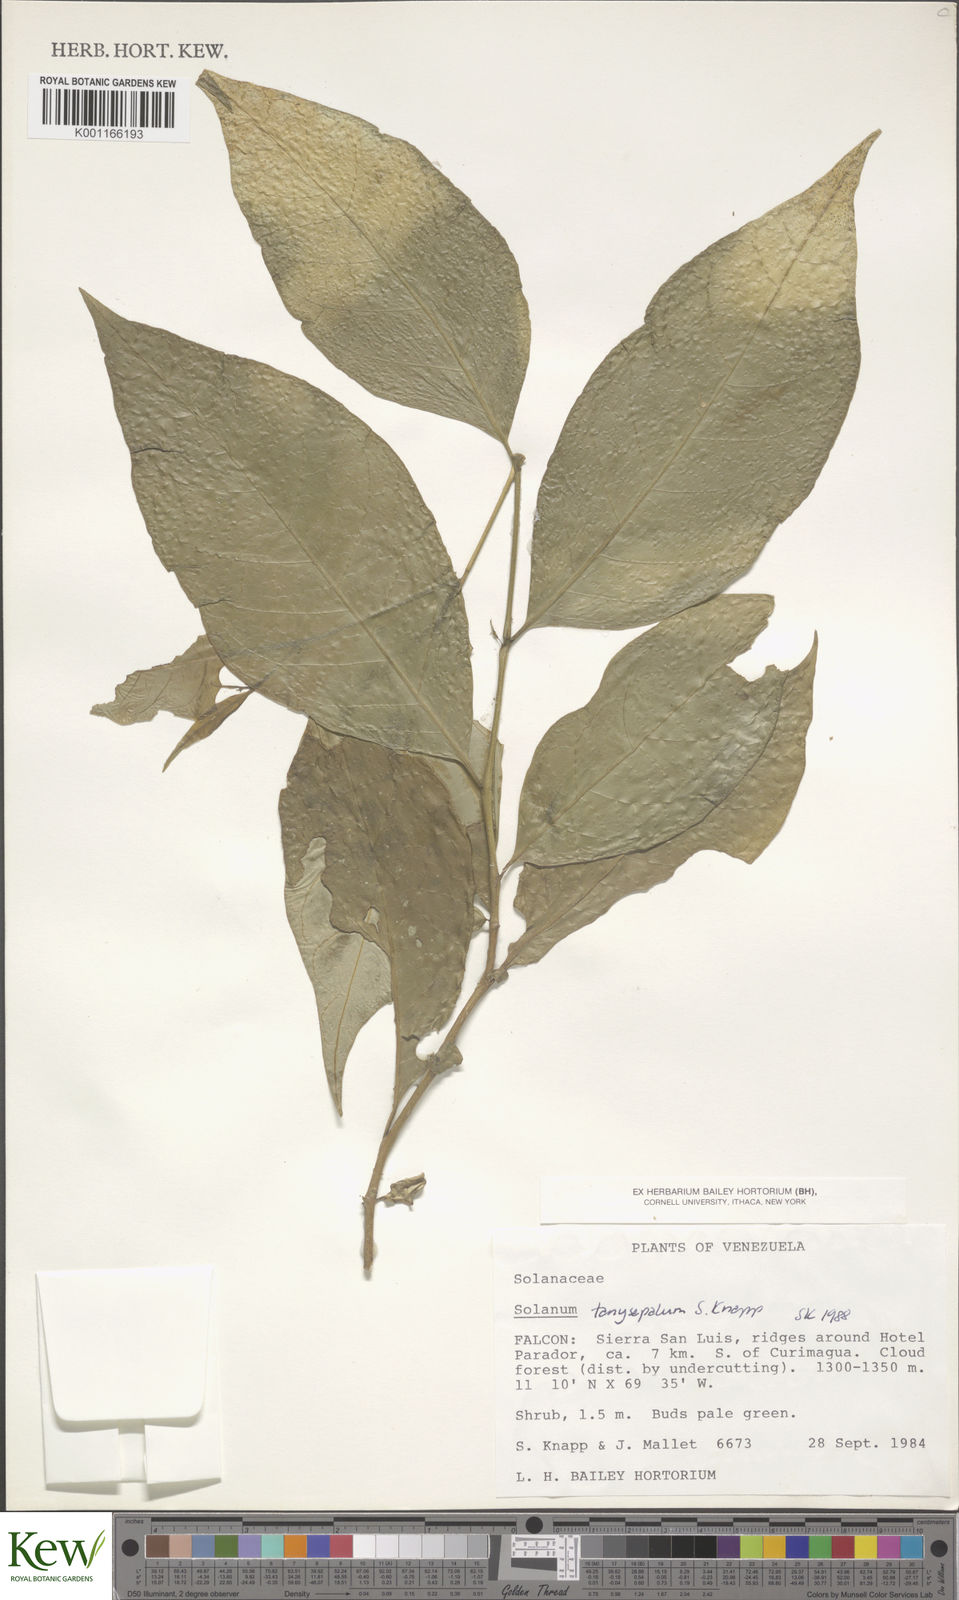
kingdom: Plantae
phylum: Tracheophyta
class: Magnoliopsida
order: Solanales
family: Solanaceae
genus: Solanum
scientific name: Solanum tanysepalum
